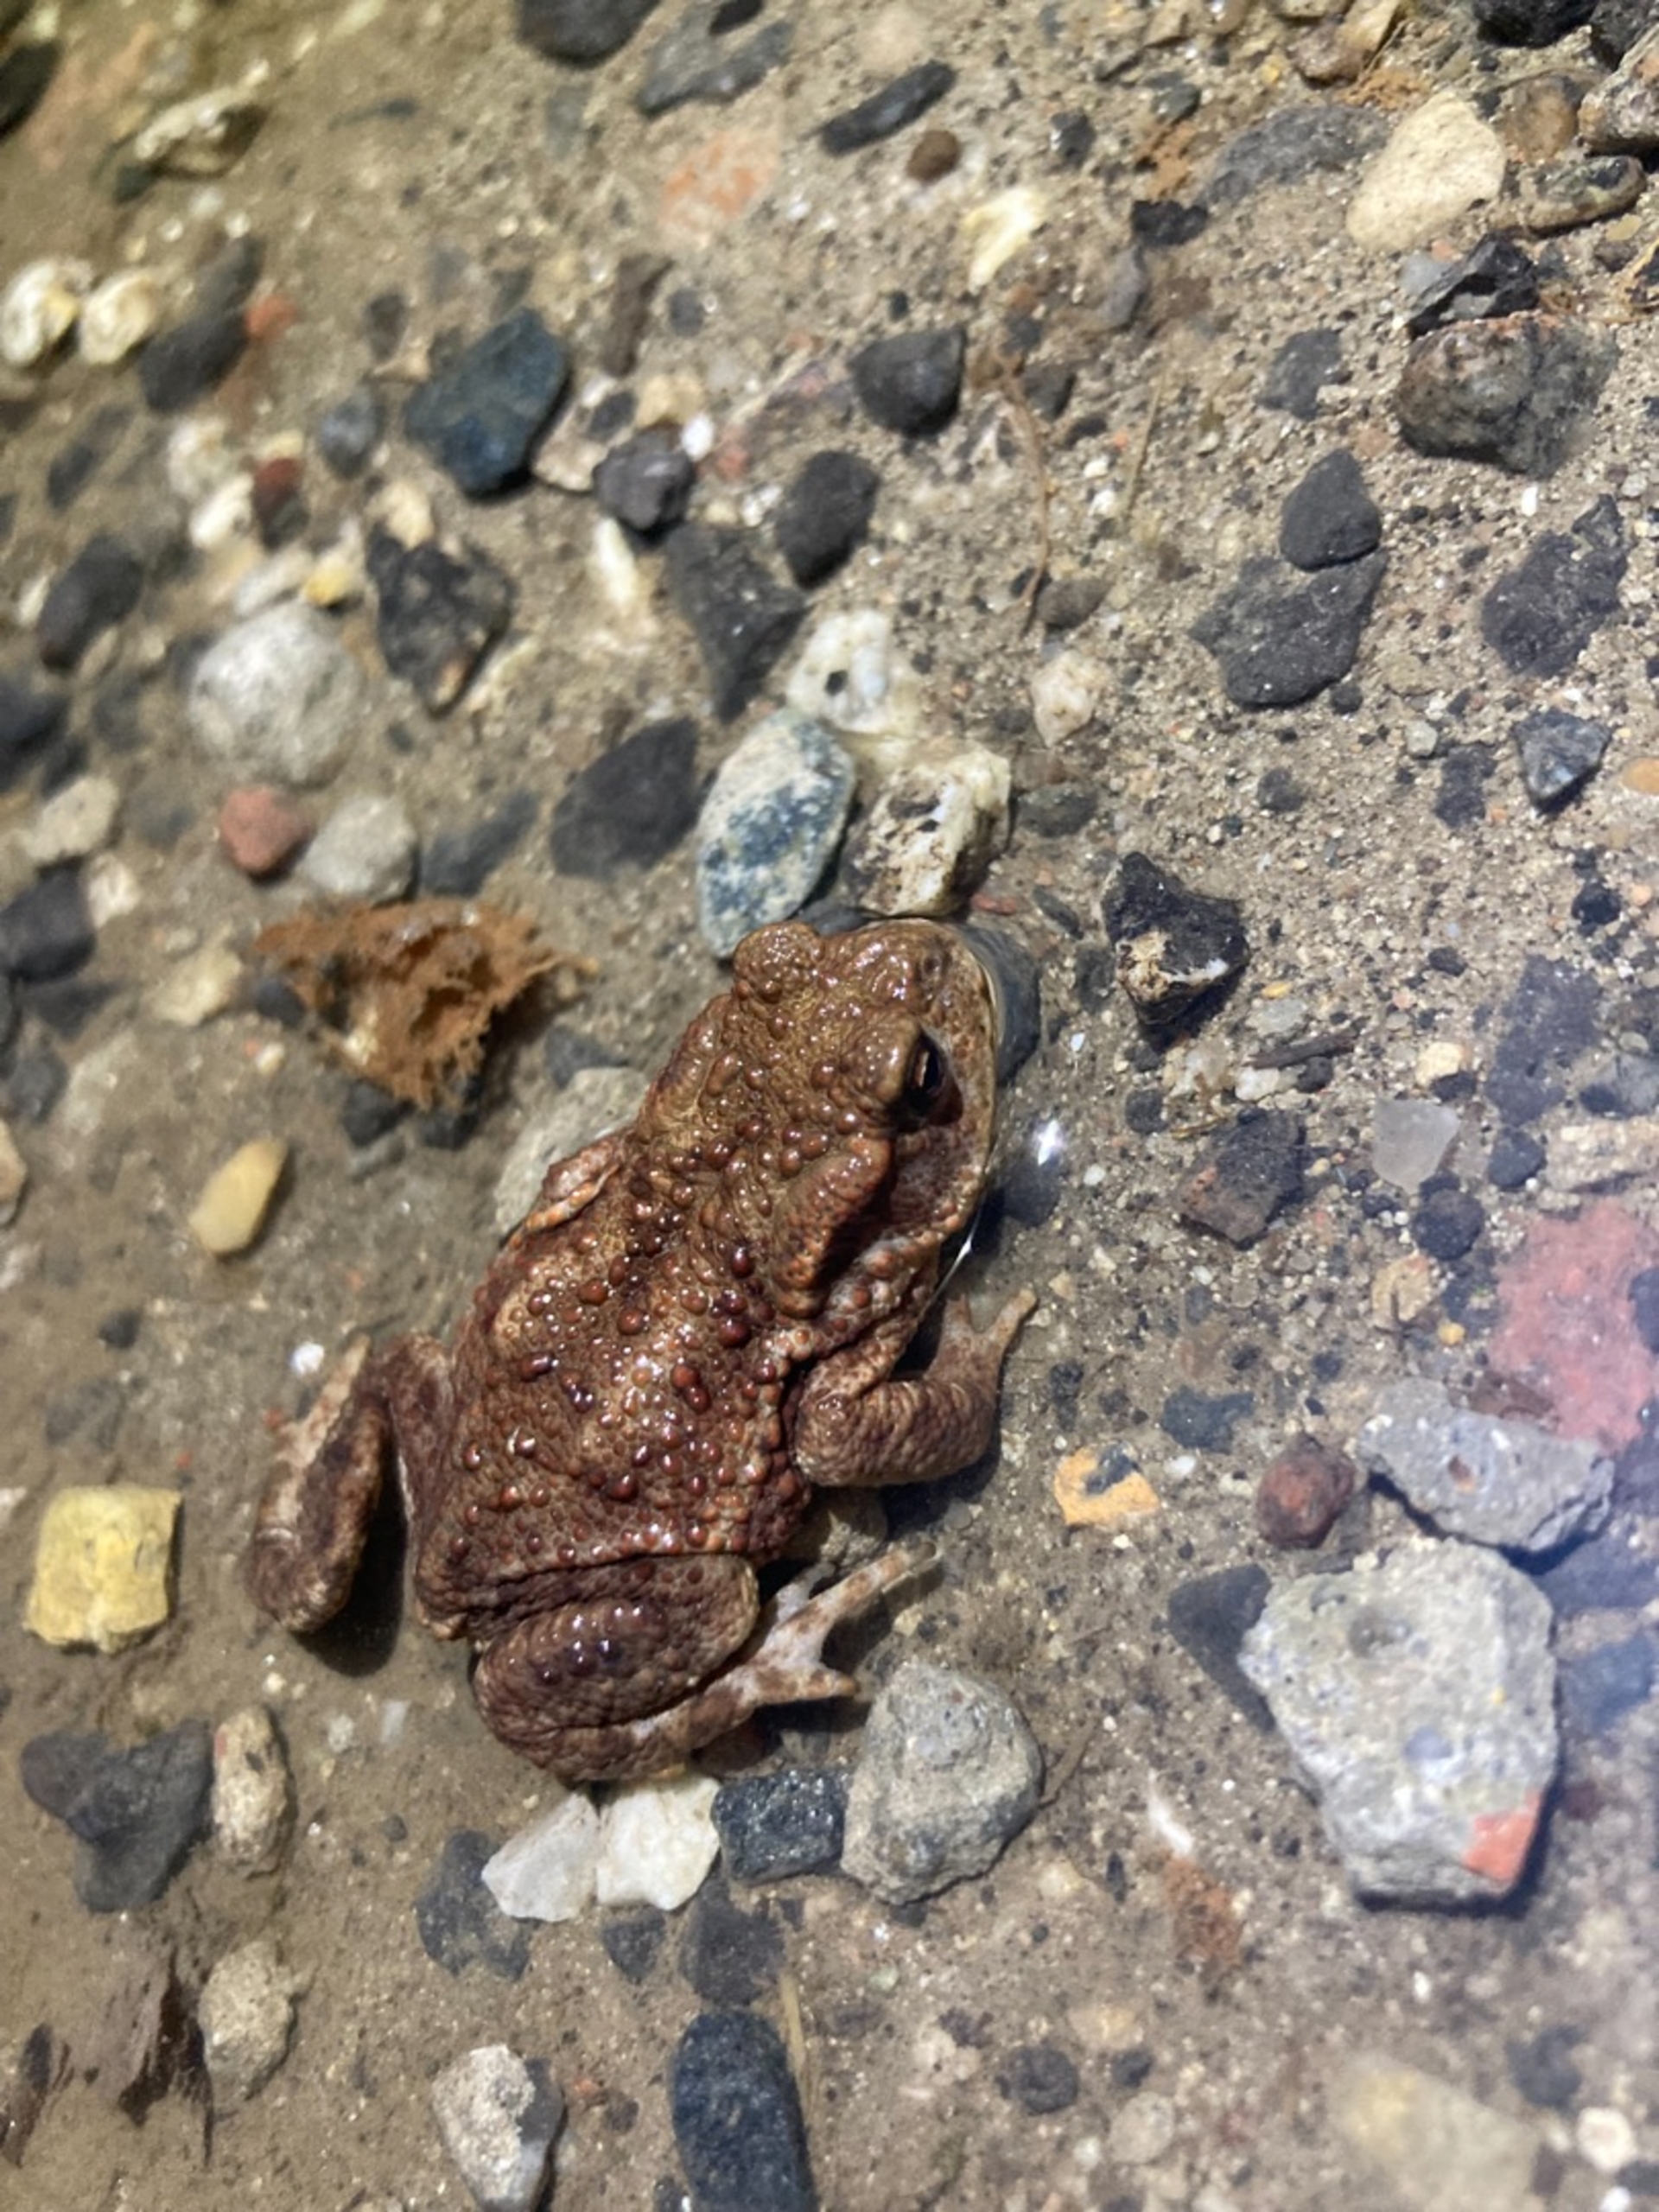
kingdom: Animalia
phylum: Chordata
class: Amphibia
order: Anura
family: Bufonidae
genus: Bufo
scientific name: Bufo bufo
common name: Skrubtudse
